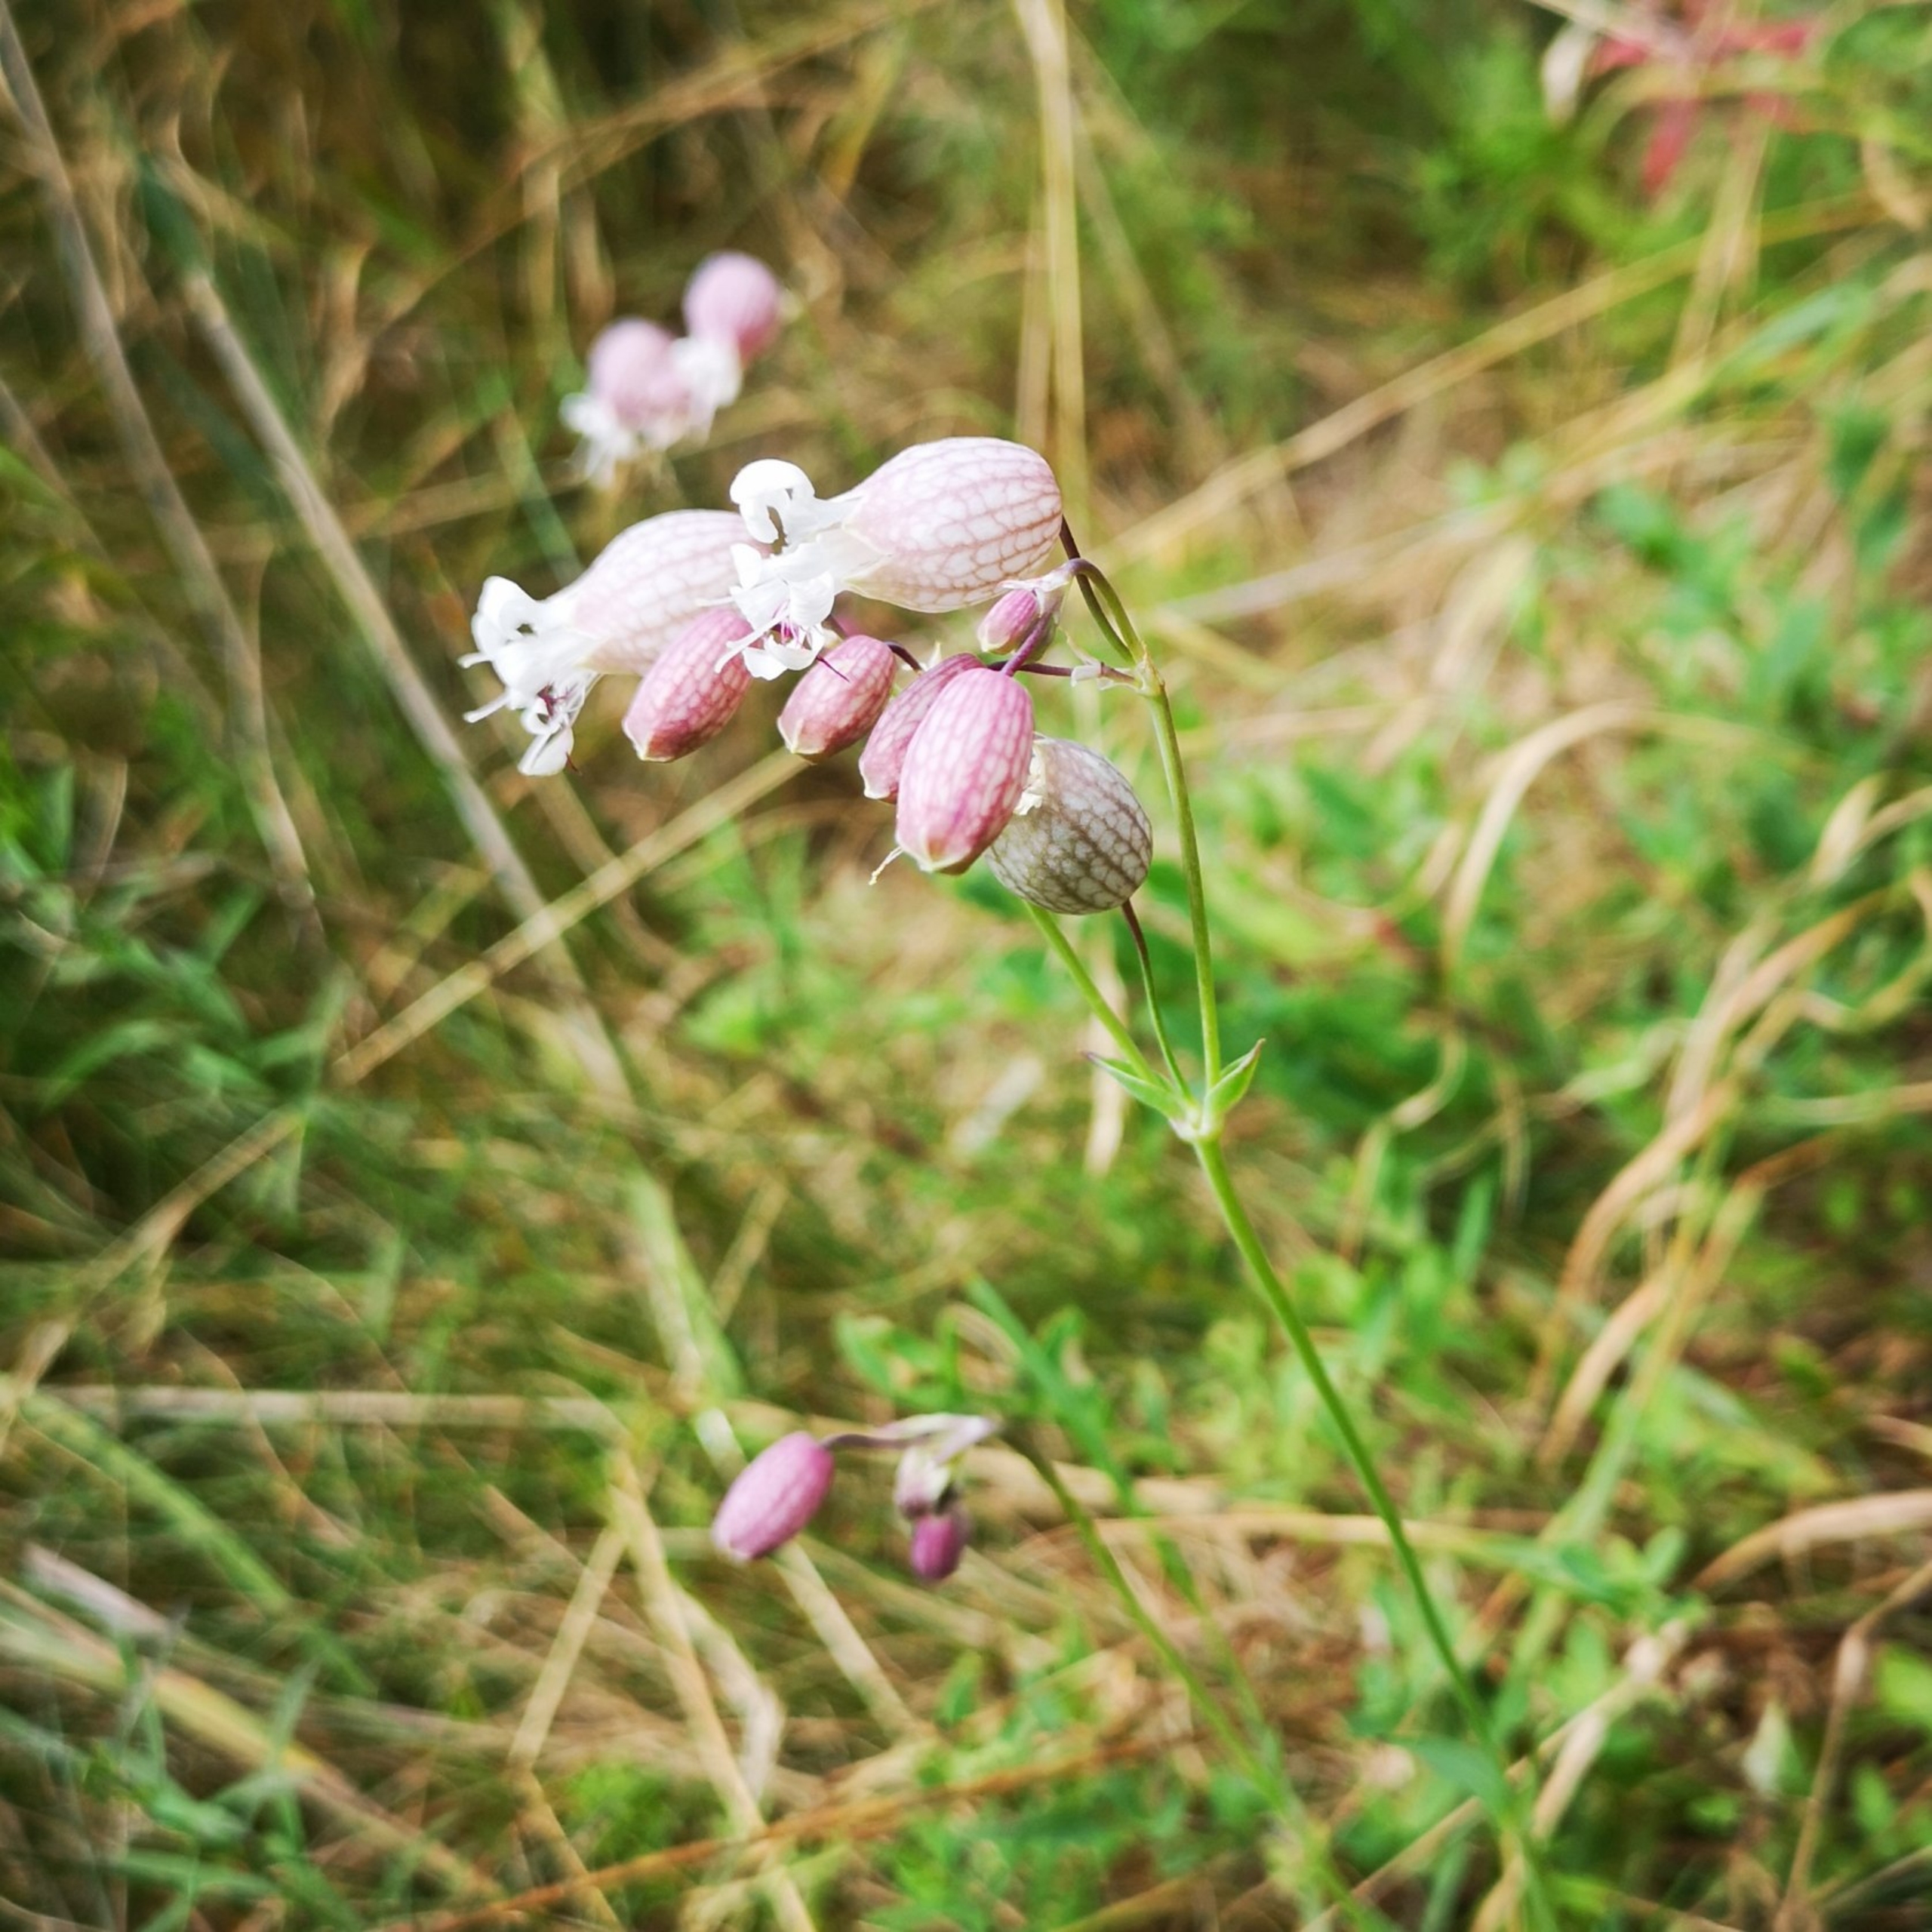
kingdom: Plantae
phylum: Tracheophyta
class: Magnoliopsida
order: Caryophyllales
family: Caryophyllaceae
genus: Silene
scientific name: Silene vulgaris
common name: Blæresmælde
